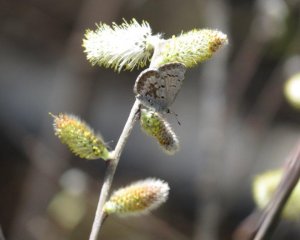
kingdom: Animalia
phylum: Arthropoda
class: Insecta
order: Lepidoptera
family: Lycaenidae
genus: Celastrina
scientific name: Celastrina lucia
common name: Northern Spring Azure
